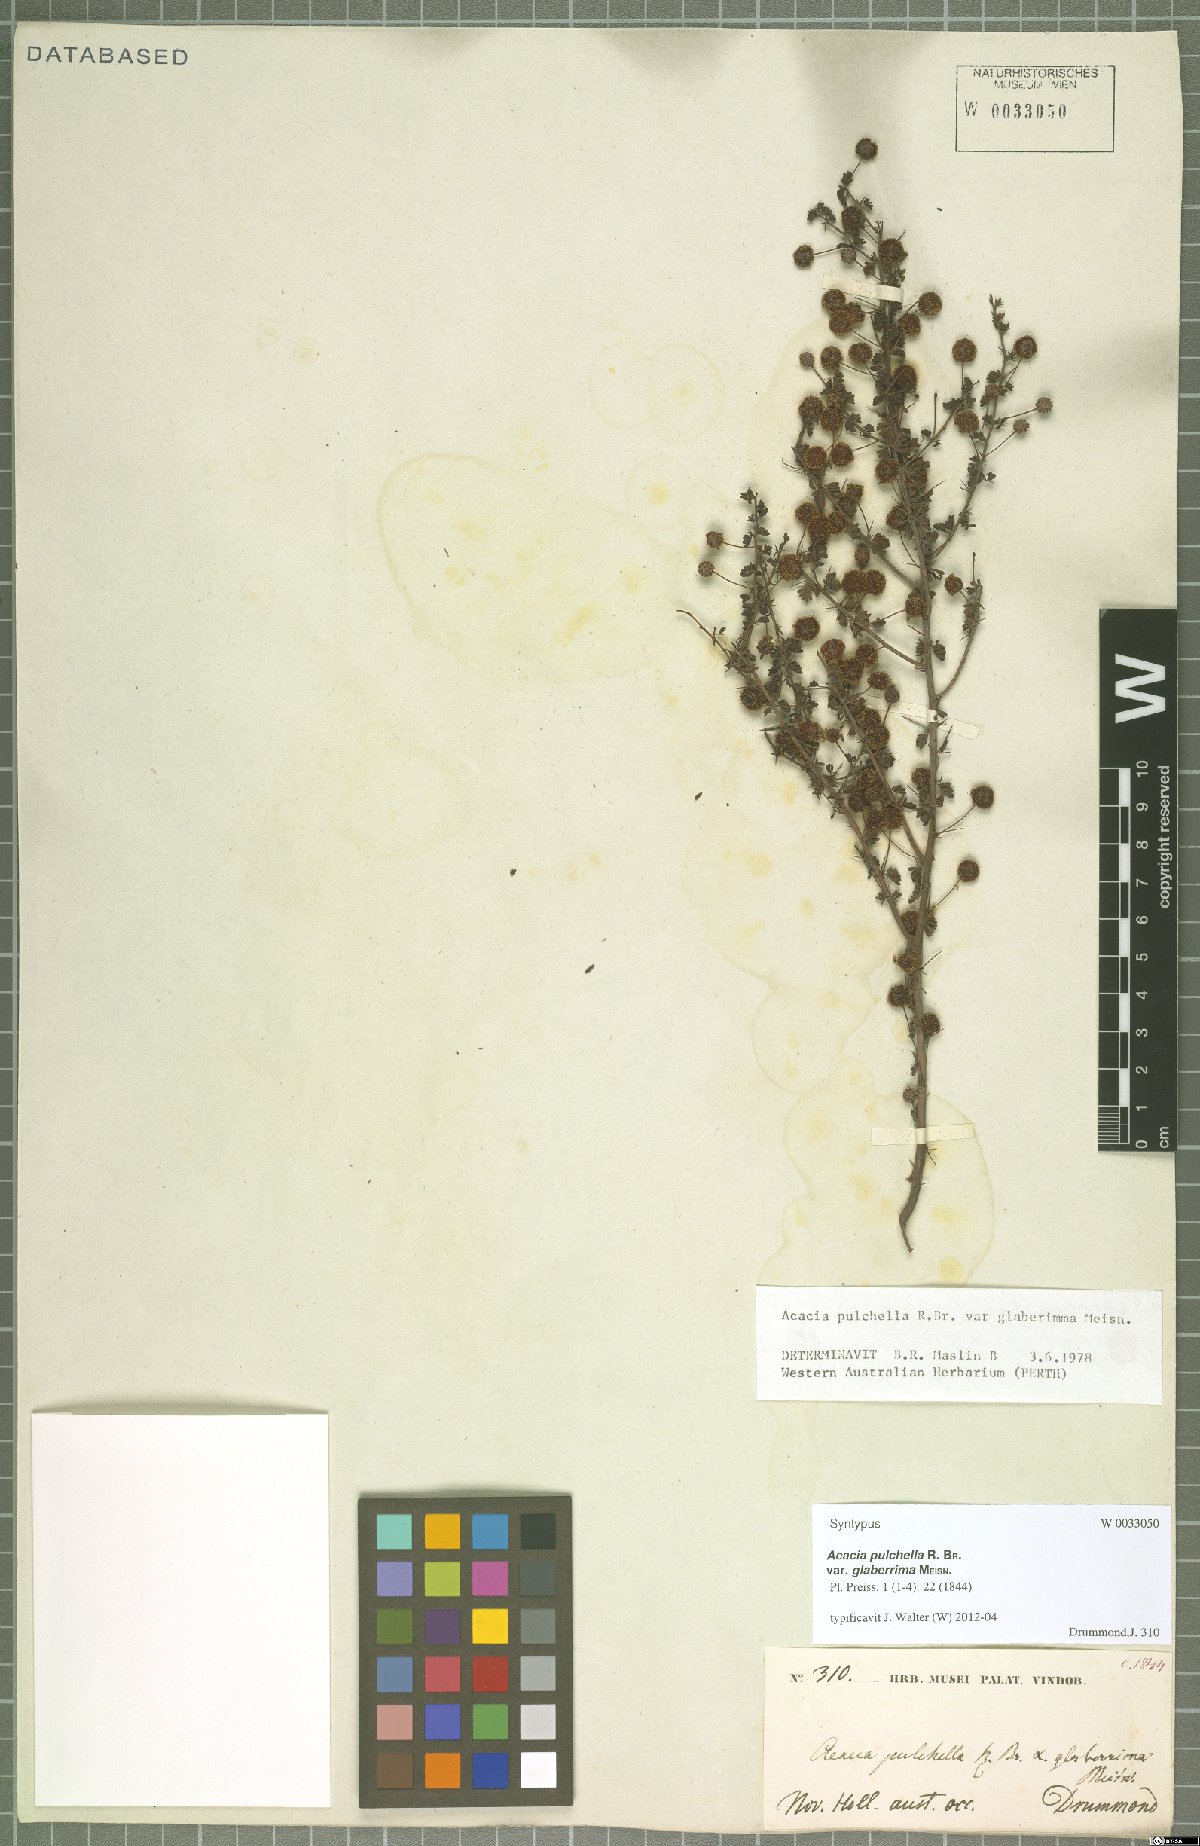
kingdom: Plantae
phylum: Tracheophyta
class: Magnoliopsida
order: Fabales
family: Fabaceae
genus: Acacia
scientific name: Acacia pulchella
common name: Prickly moses
